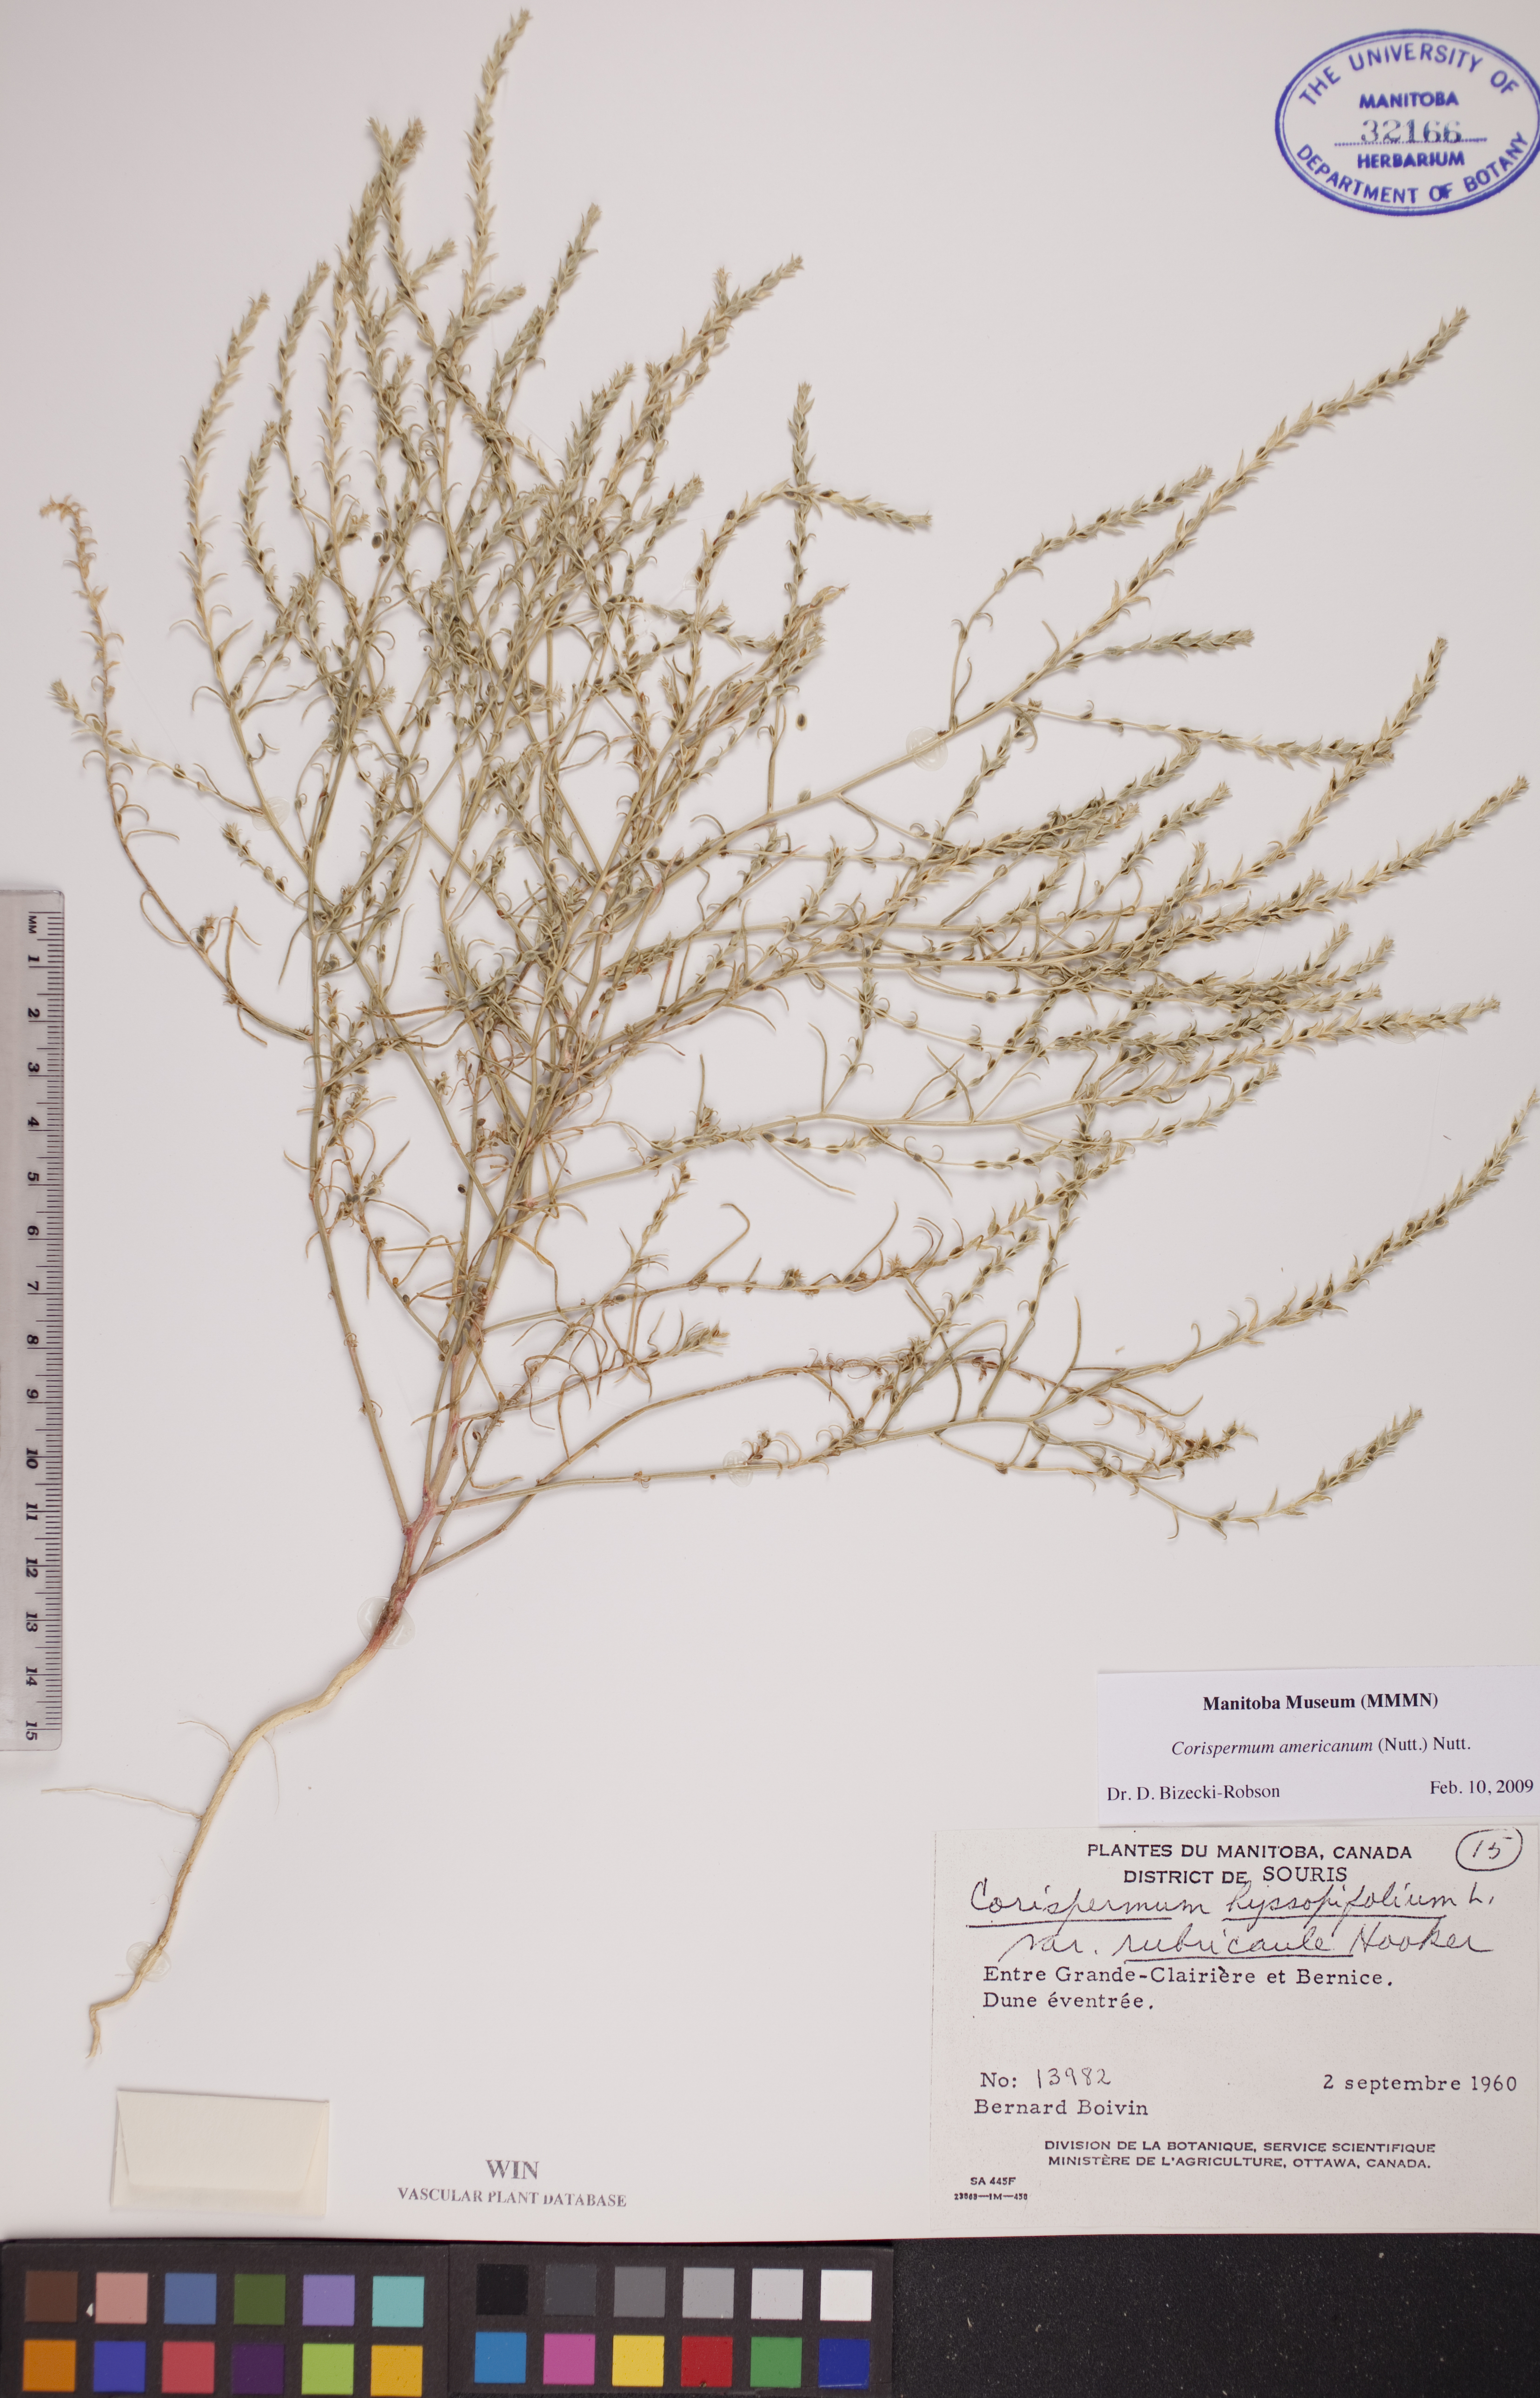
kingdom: Plantae
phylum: Tracheophyta
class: Magnoliopsida
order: Caryophyllales
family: Amaranthaceae
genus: Corispermum
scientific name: Corispermum americanum
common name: American bugseed
